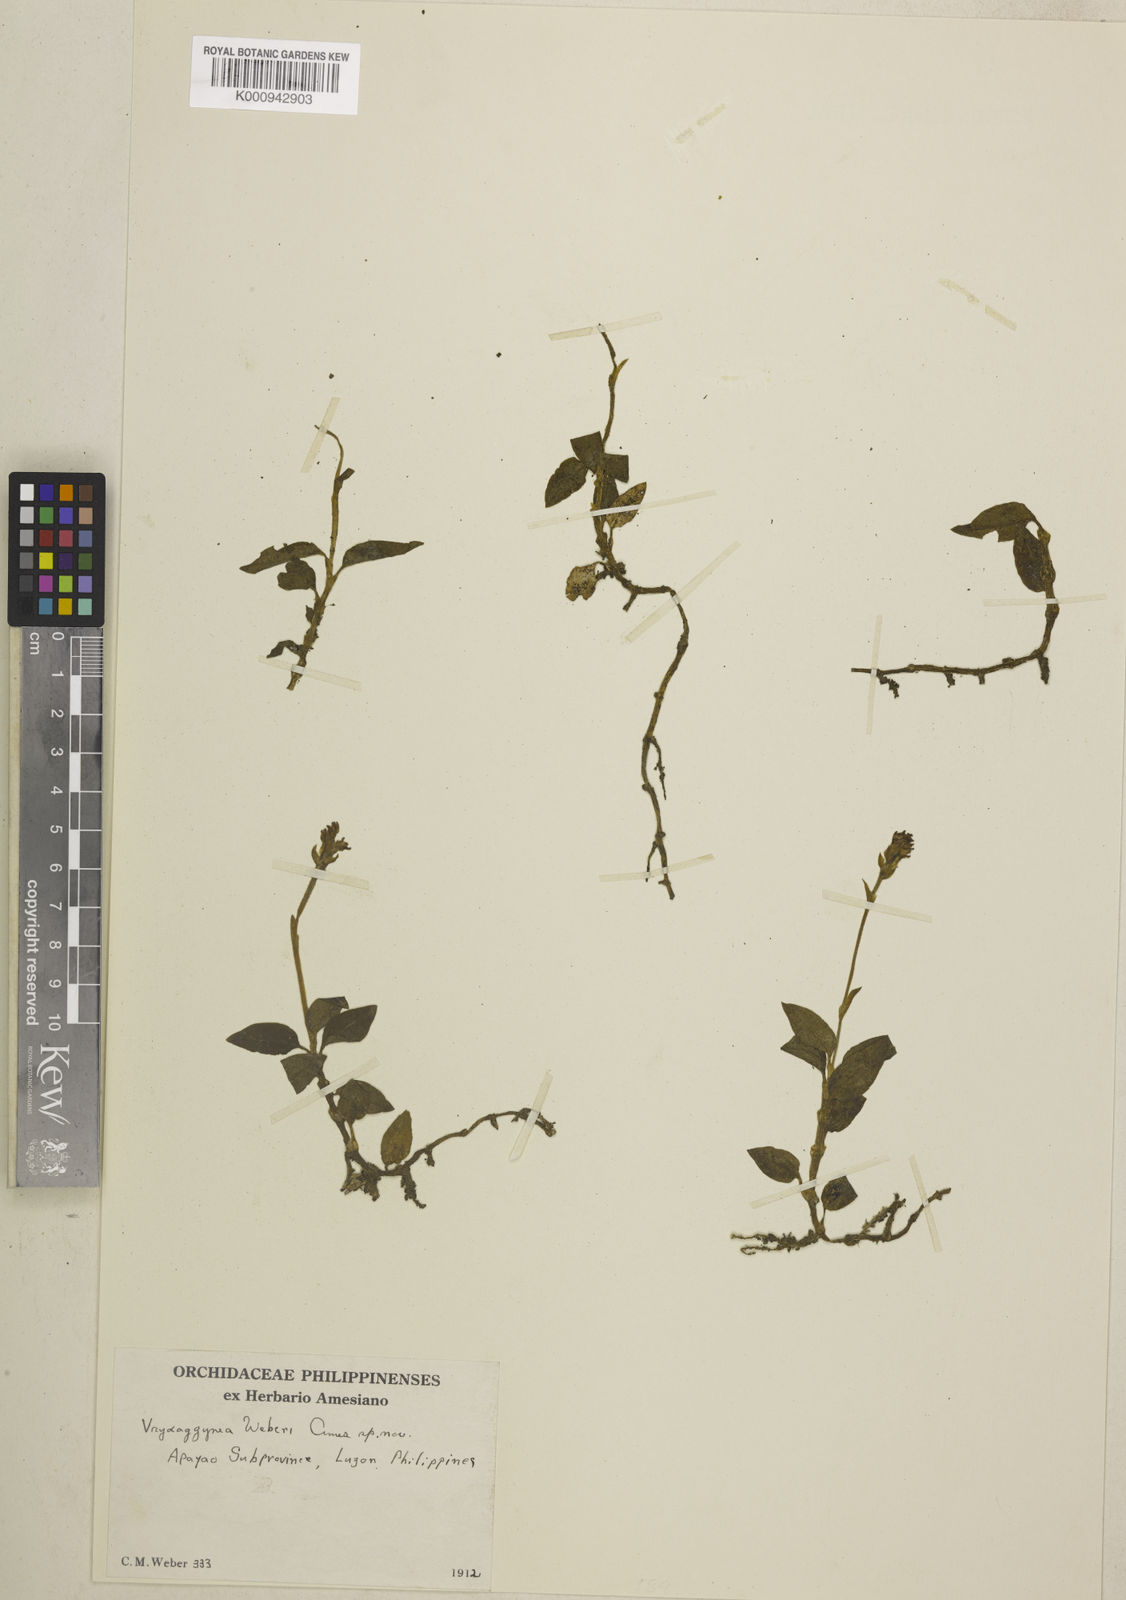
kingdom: Plantae
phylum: Tracheophyta
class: Liliopsida
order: Asparagales
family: Orchidaceae
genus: Vrydagzynea
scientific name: Vrydagzynea weberi
